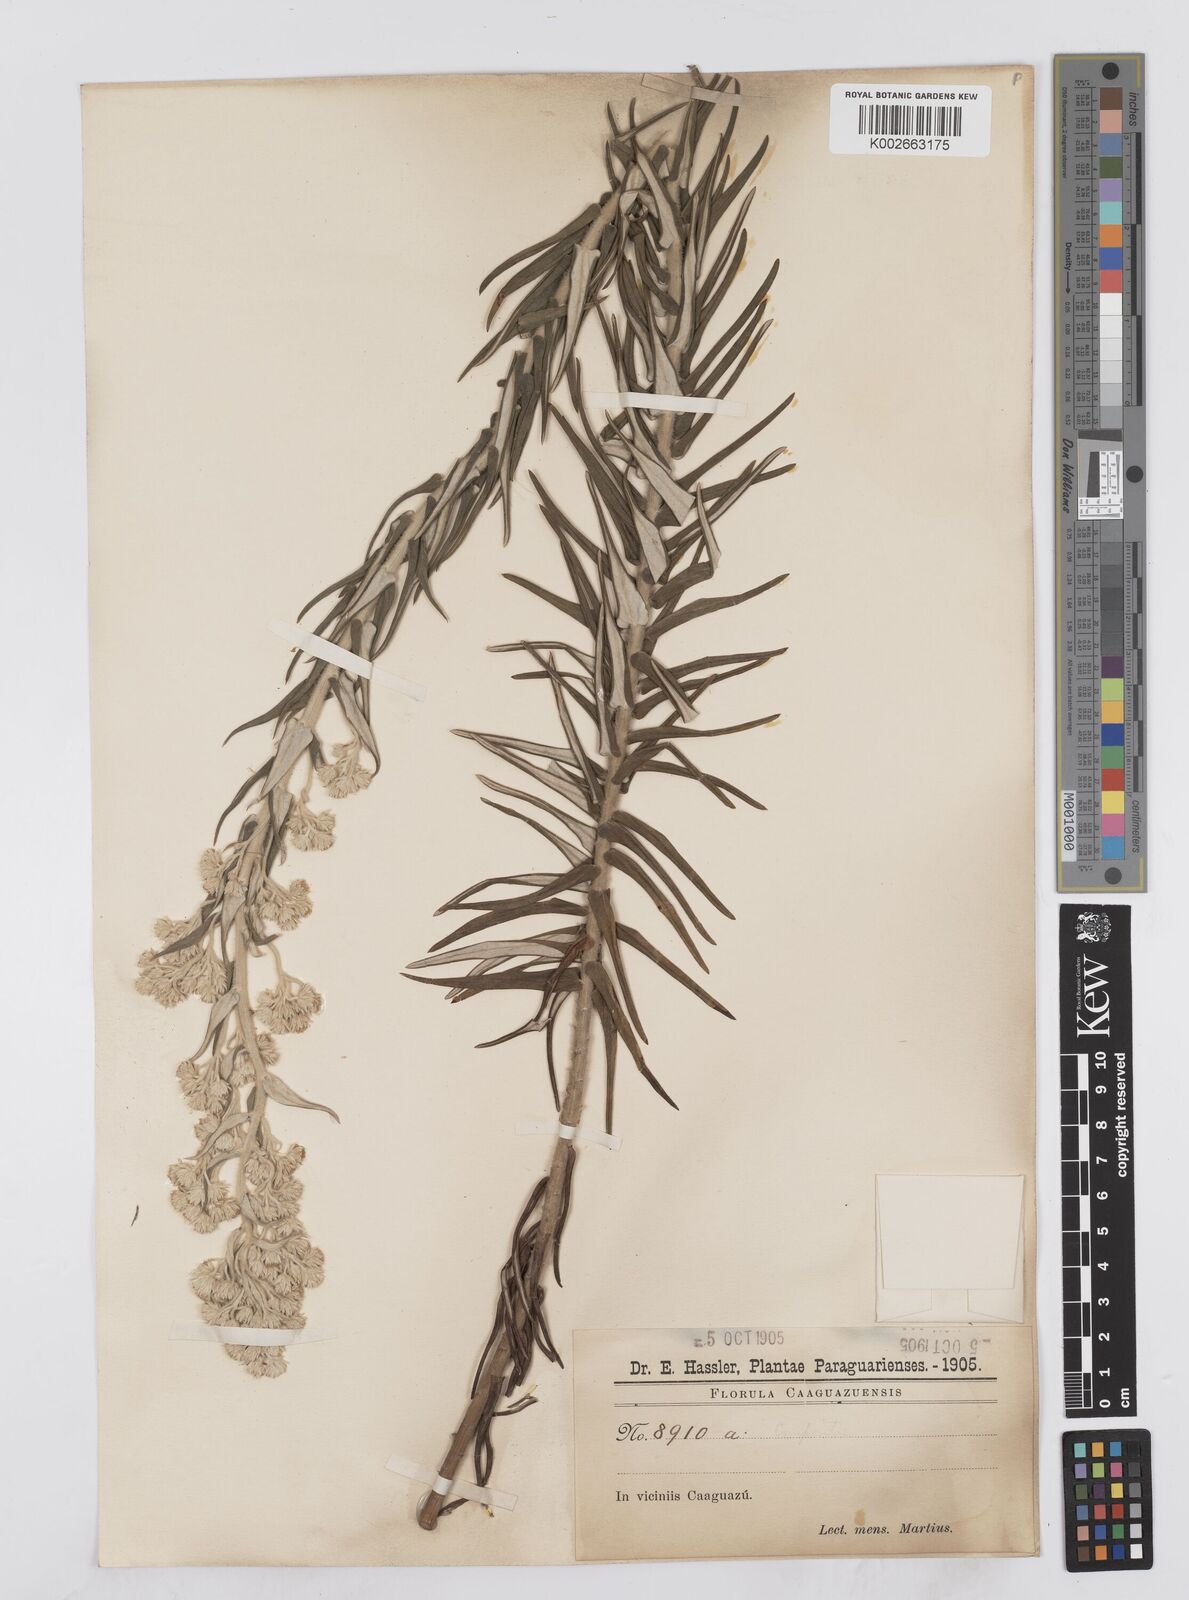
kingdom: Plantae
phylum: Tracheophyta
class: Magnoliopsida
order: Asterales
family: Asteraceae
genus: Baccharis
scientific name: Baccharis helichrysoides
